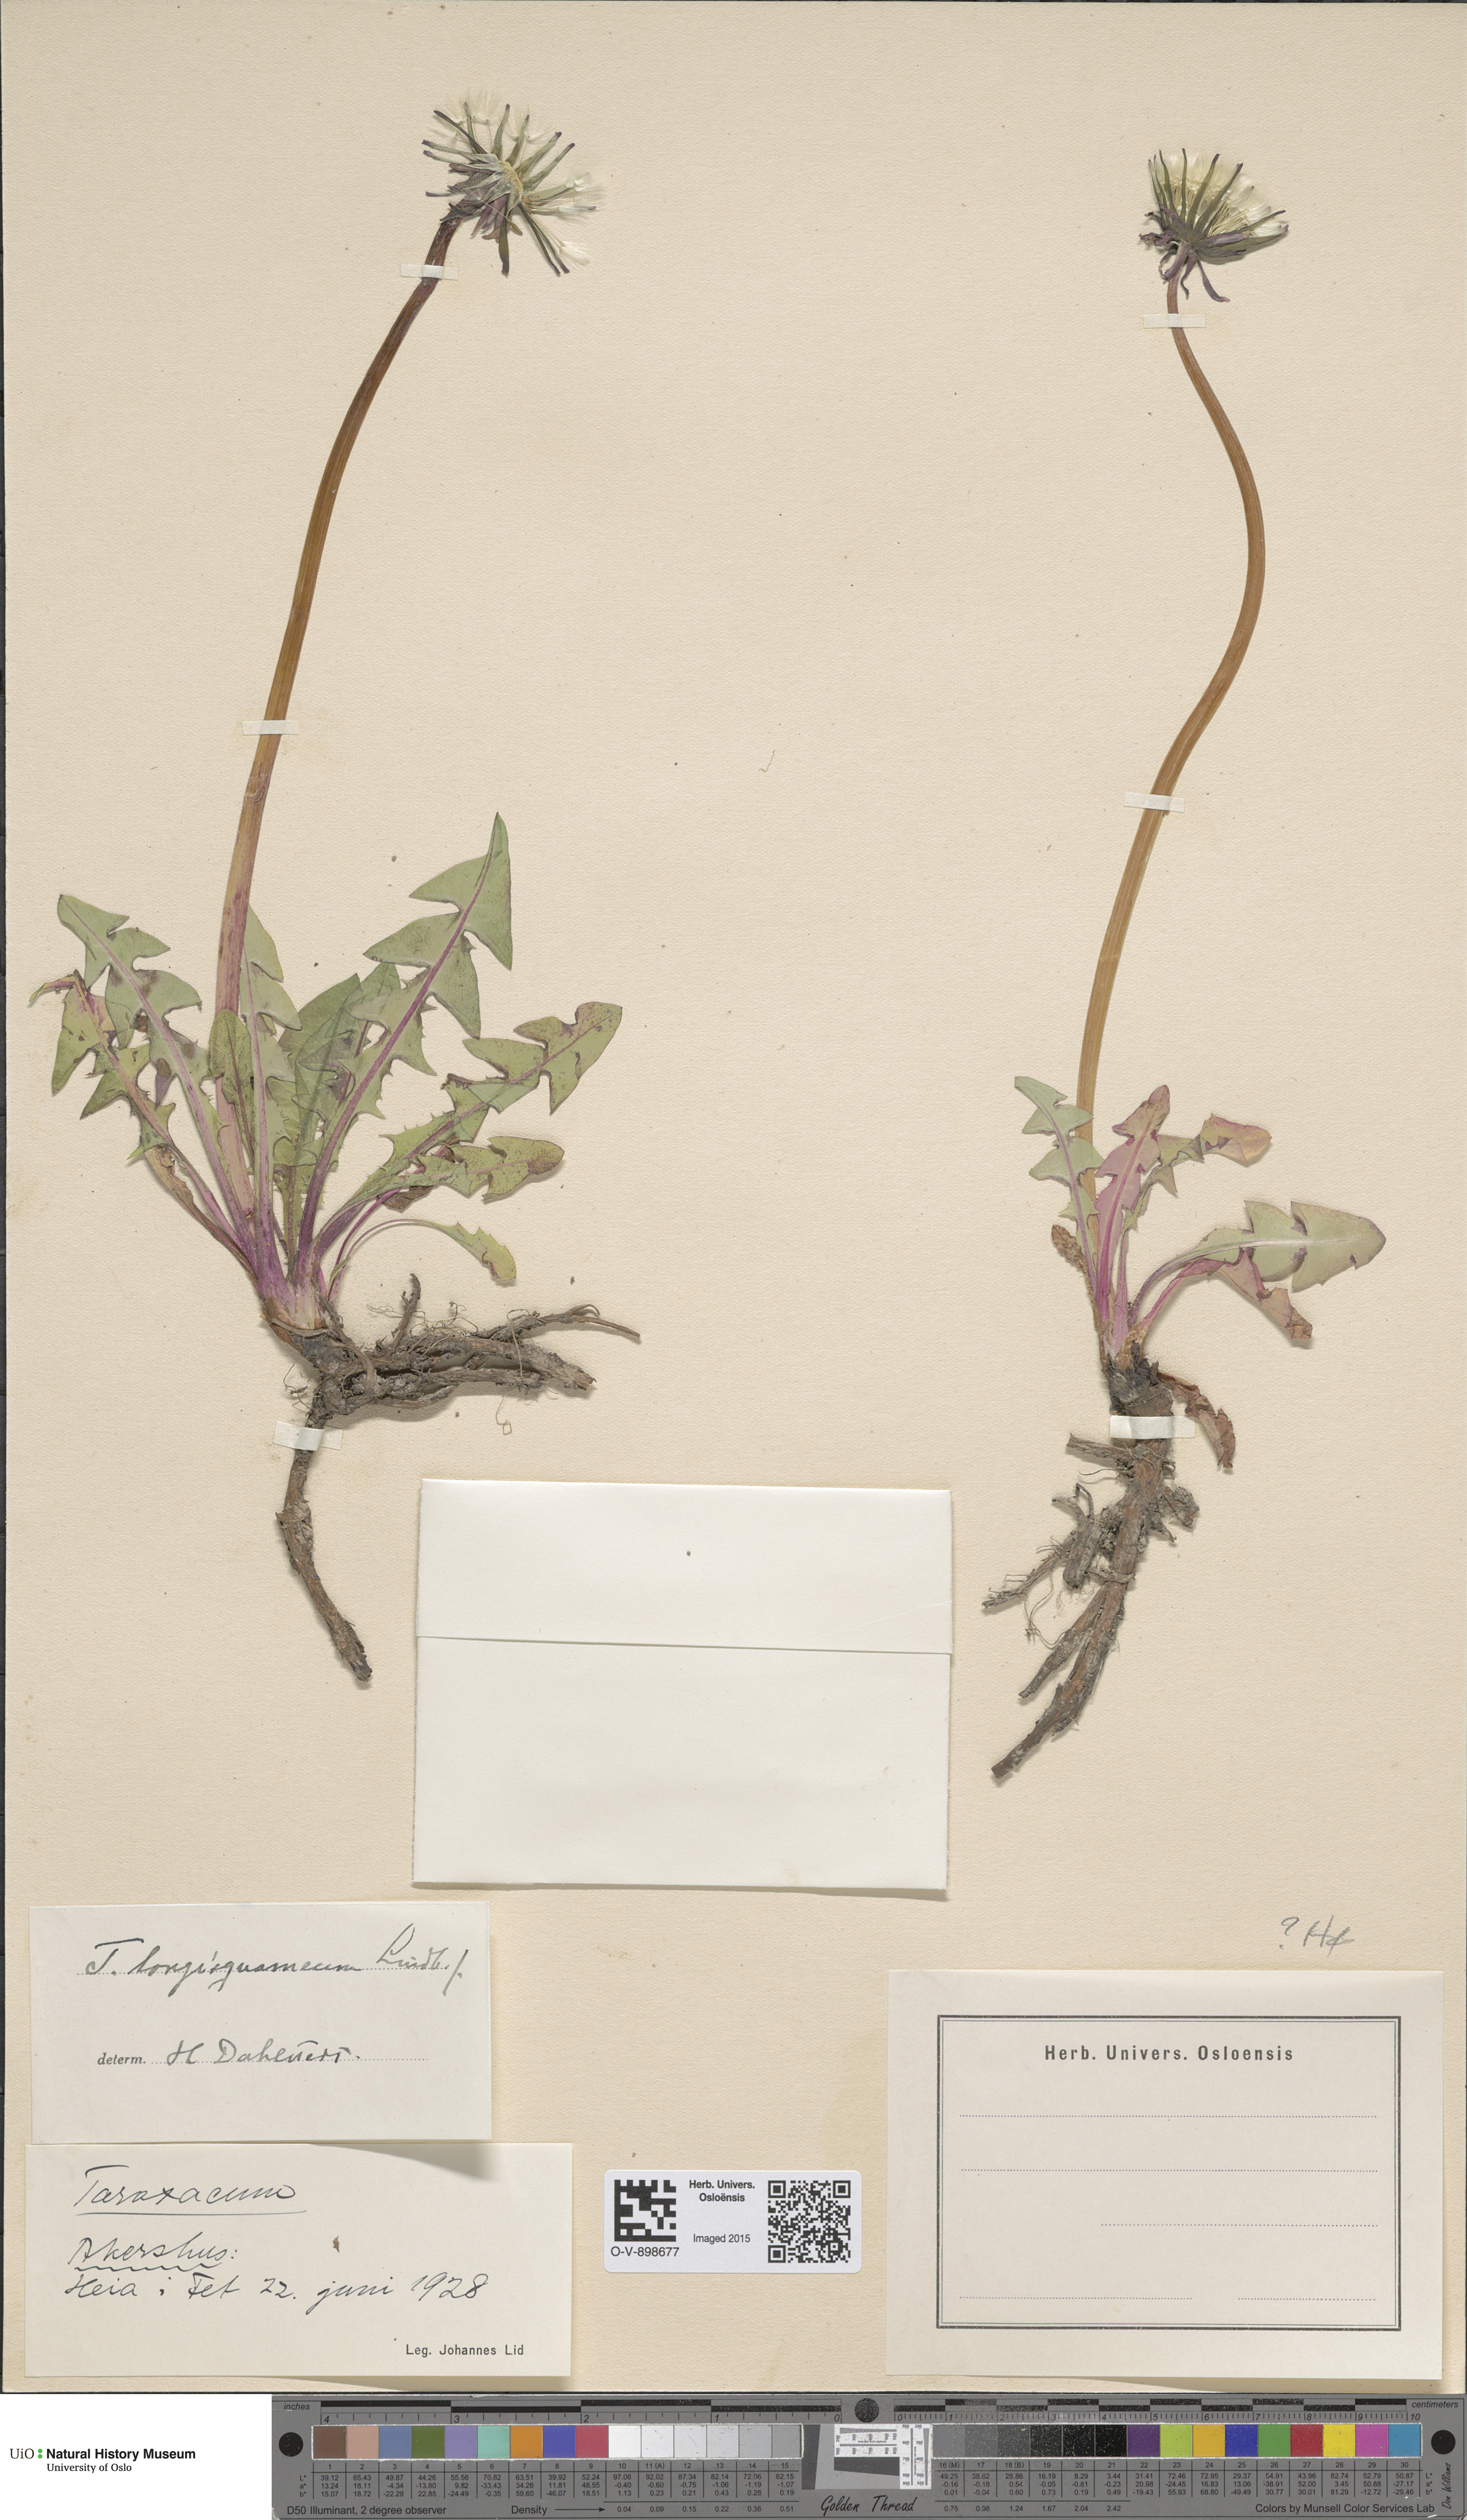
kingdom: Plantae
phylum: Tracheophyta
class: Magnoliopsida
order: Asterales
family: Asteraceae
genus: Taraxacum
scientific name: Taraxacum longisquameum
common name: Elongate-bracted dandelion
